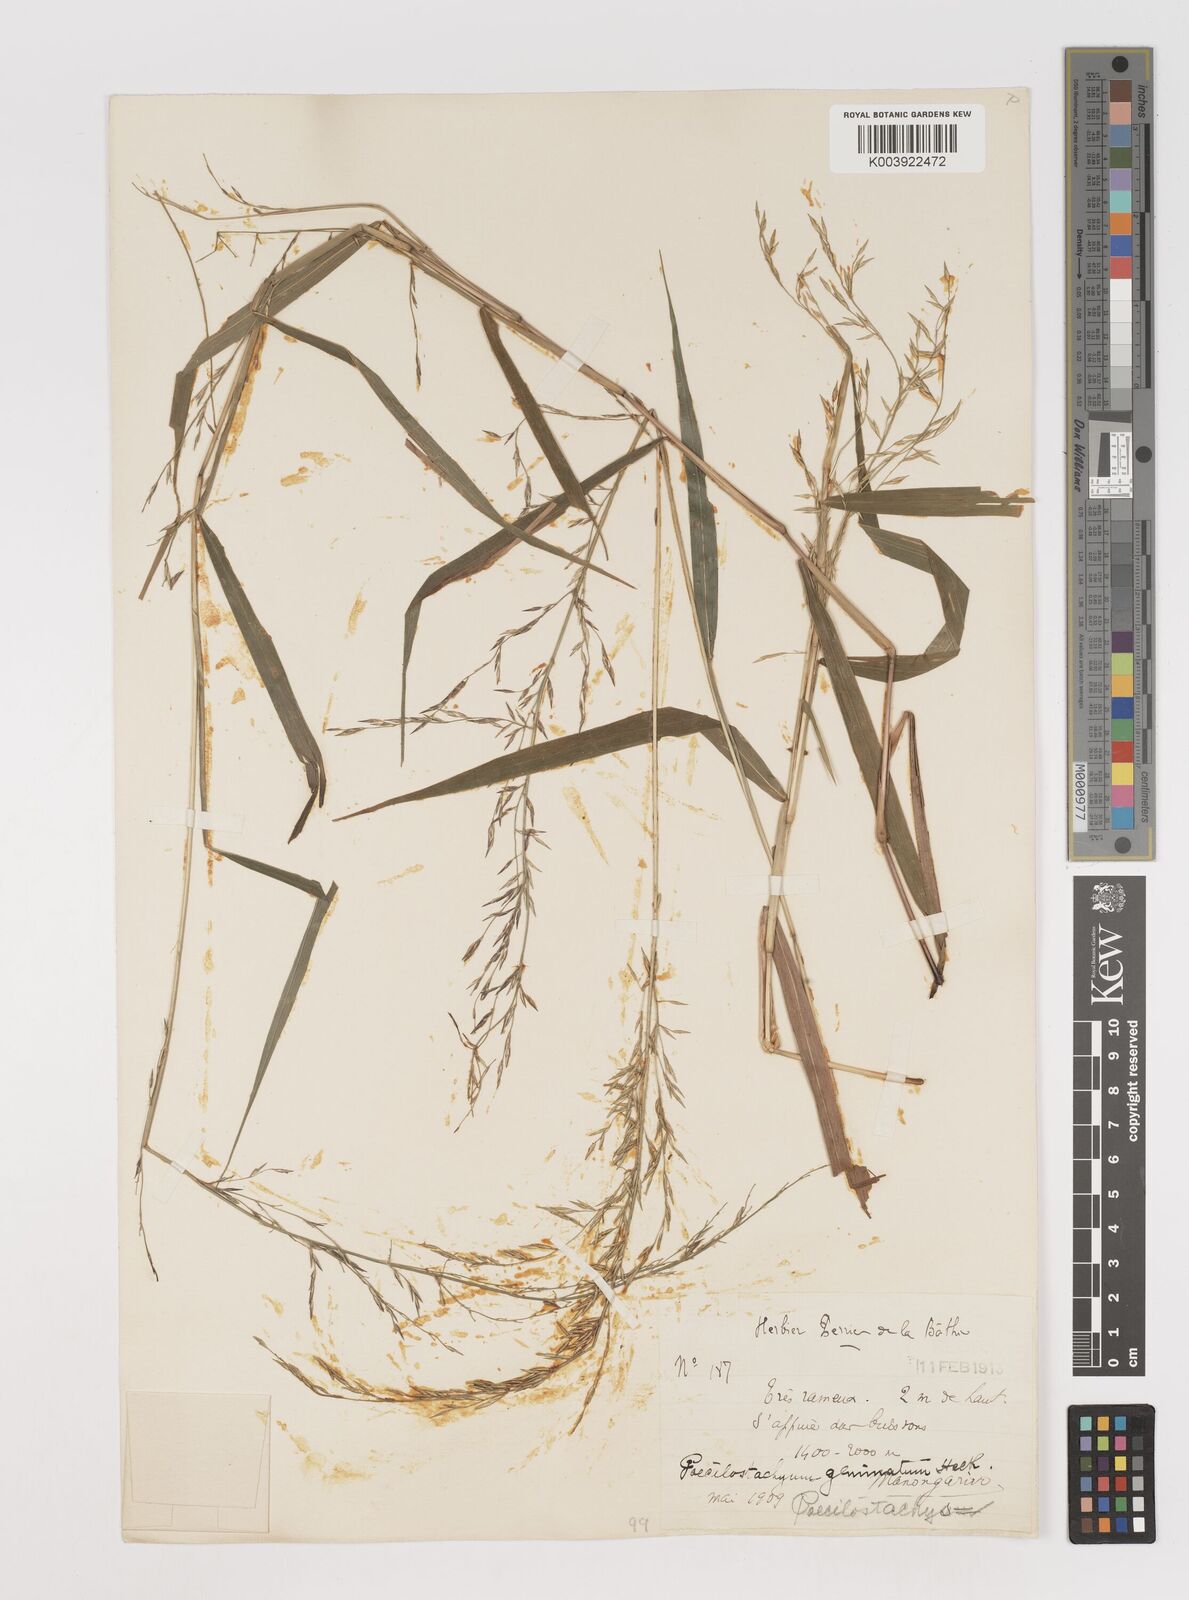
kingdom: Plantae
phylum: Tracheophyta
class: Liliopsida
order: Poales
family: Poaceae
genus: Poecilostachys
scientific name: Poecilostachys geminata
